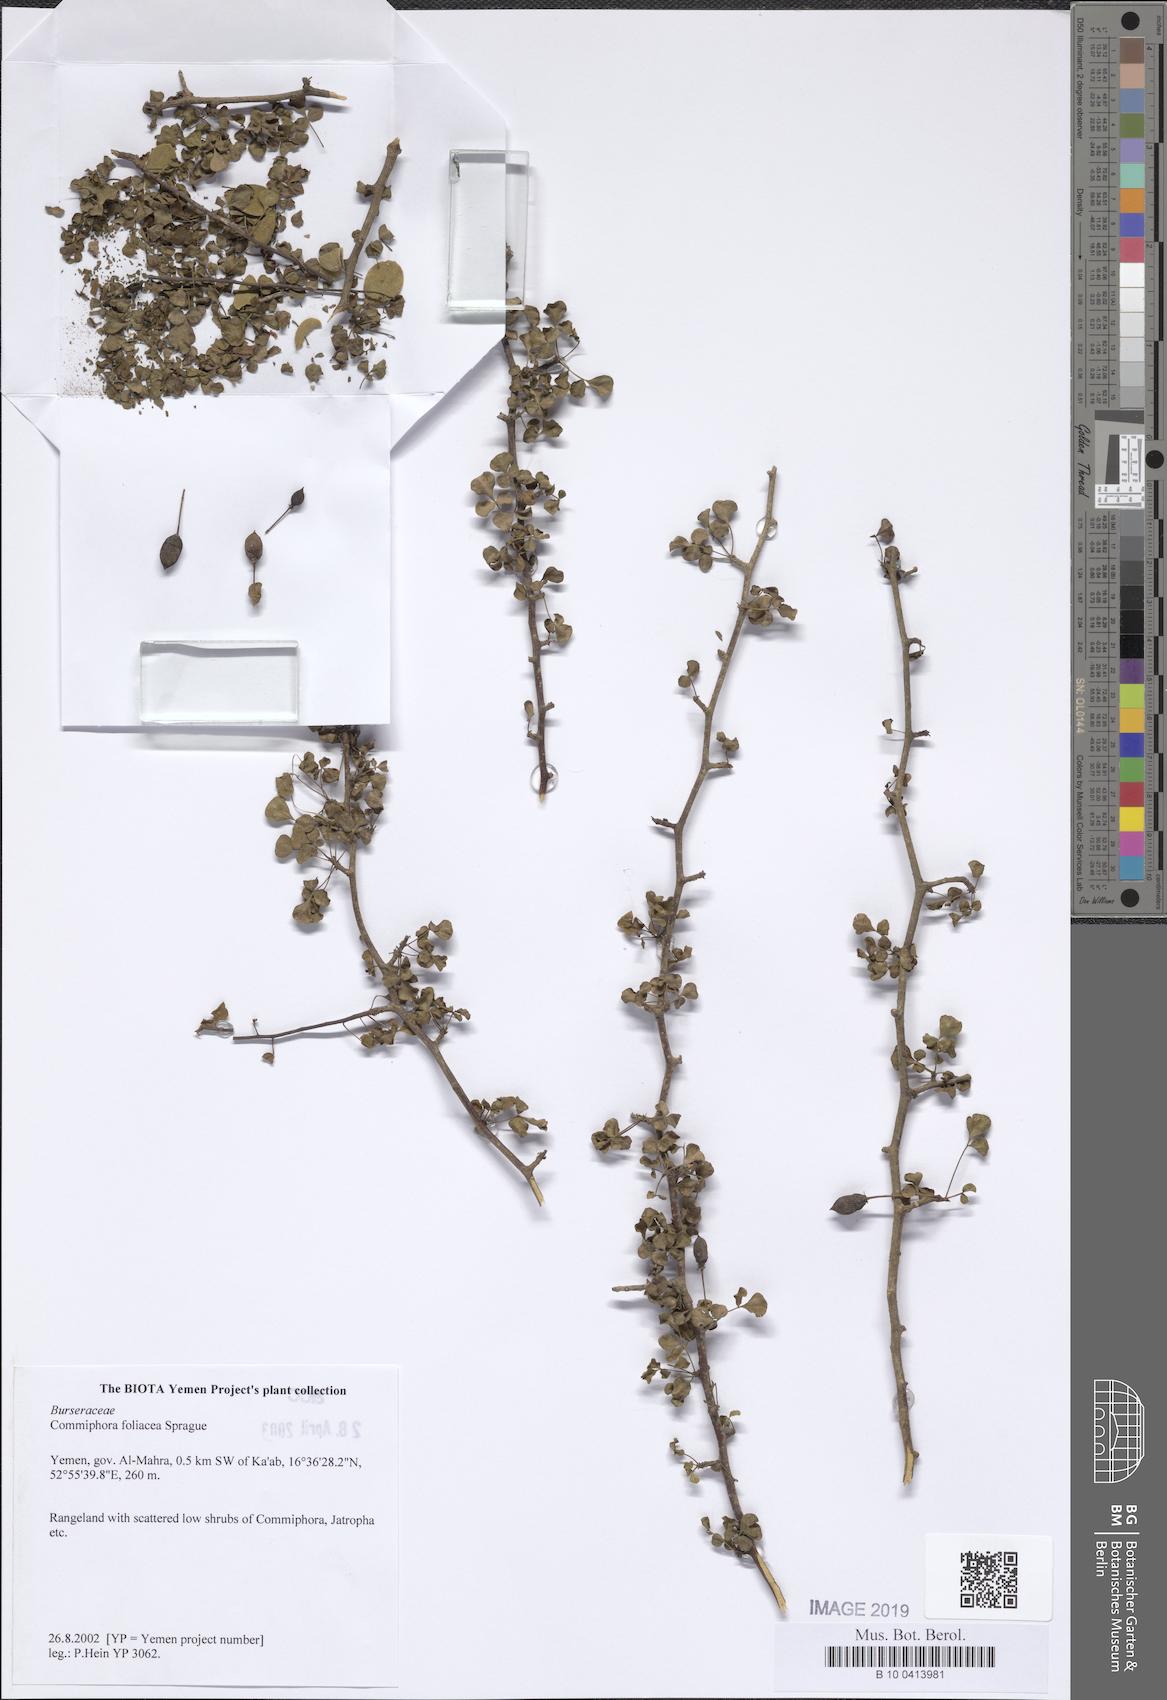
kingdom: Plantae
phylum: Tracheophyta
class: Magnoliopsida
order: Sapindales
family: Burseraceae
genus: Commiphora
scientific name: Commiphora foliacea
